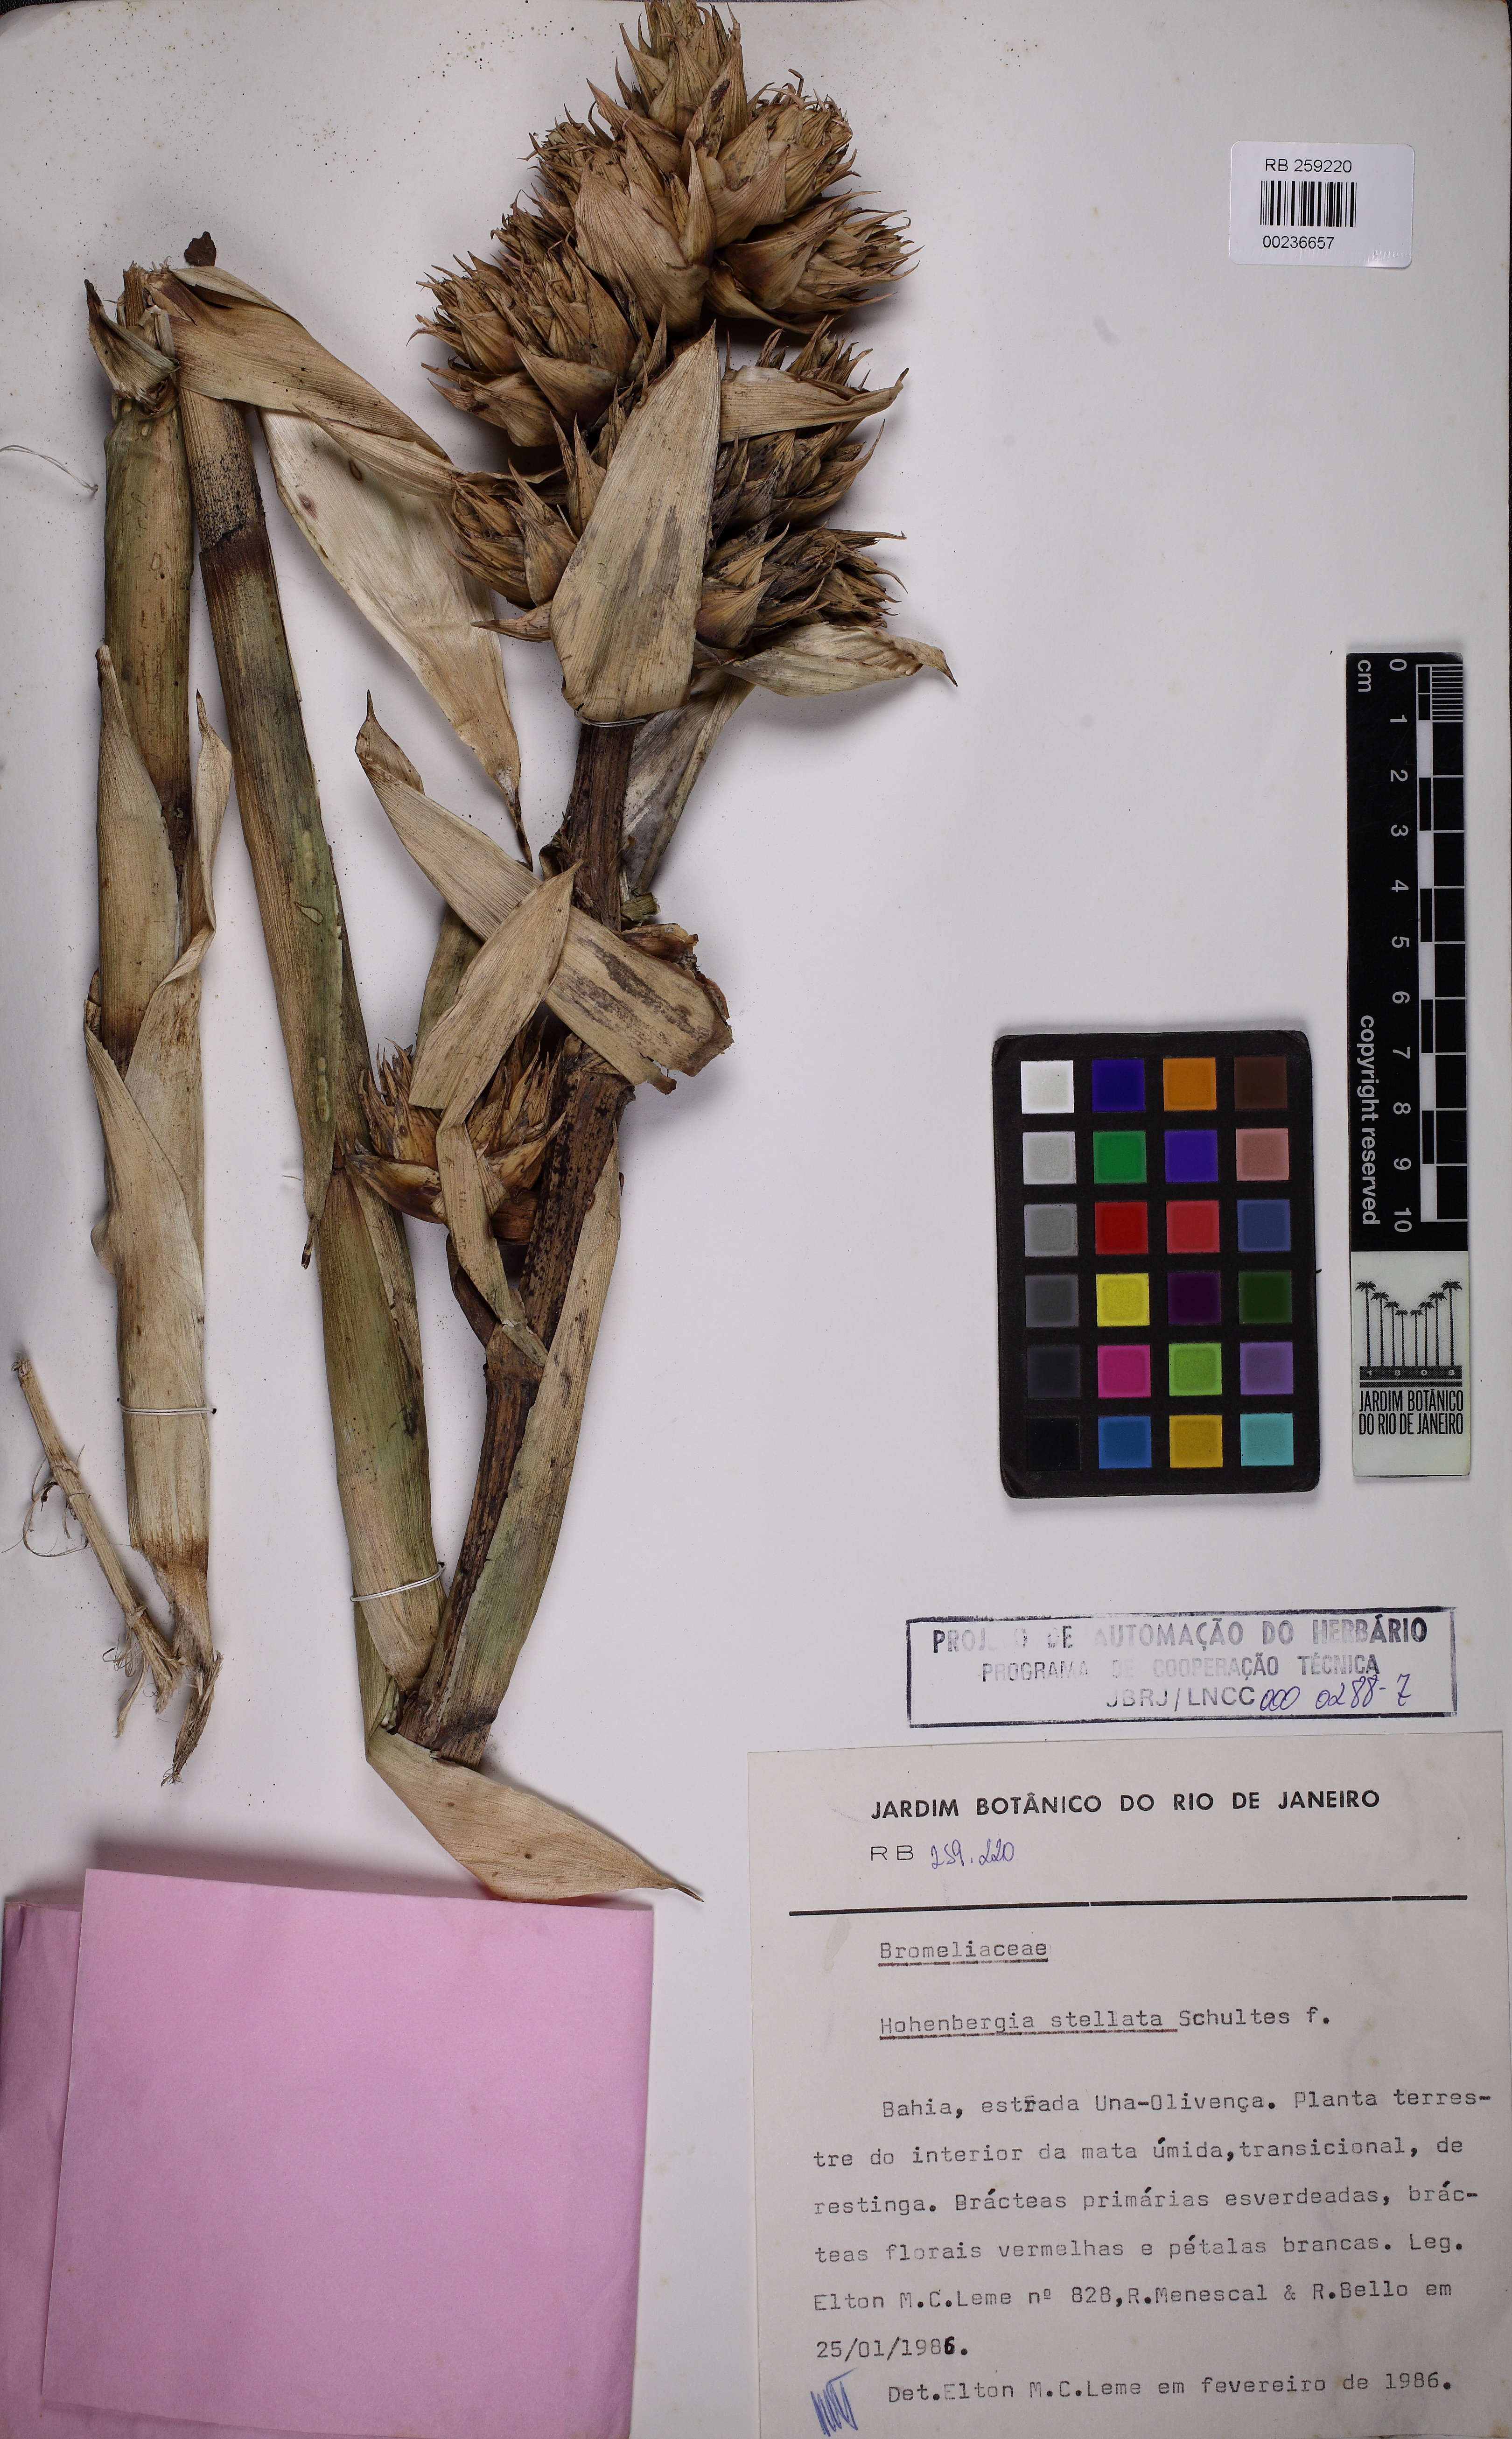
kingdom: Plantae
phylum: Tracheophyta
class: Liliopsida
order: Poales
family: Bromeliaceae
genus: Hohenbergia
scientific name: Hohenbergia stellata
